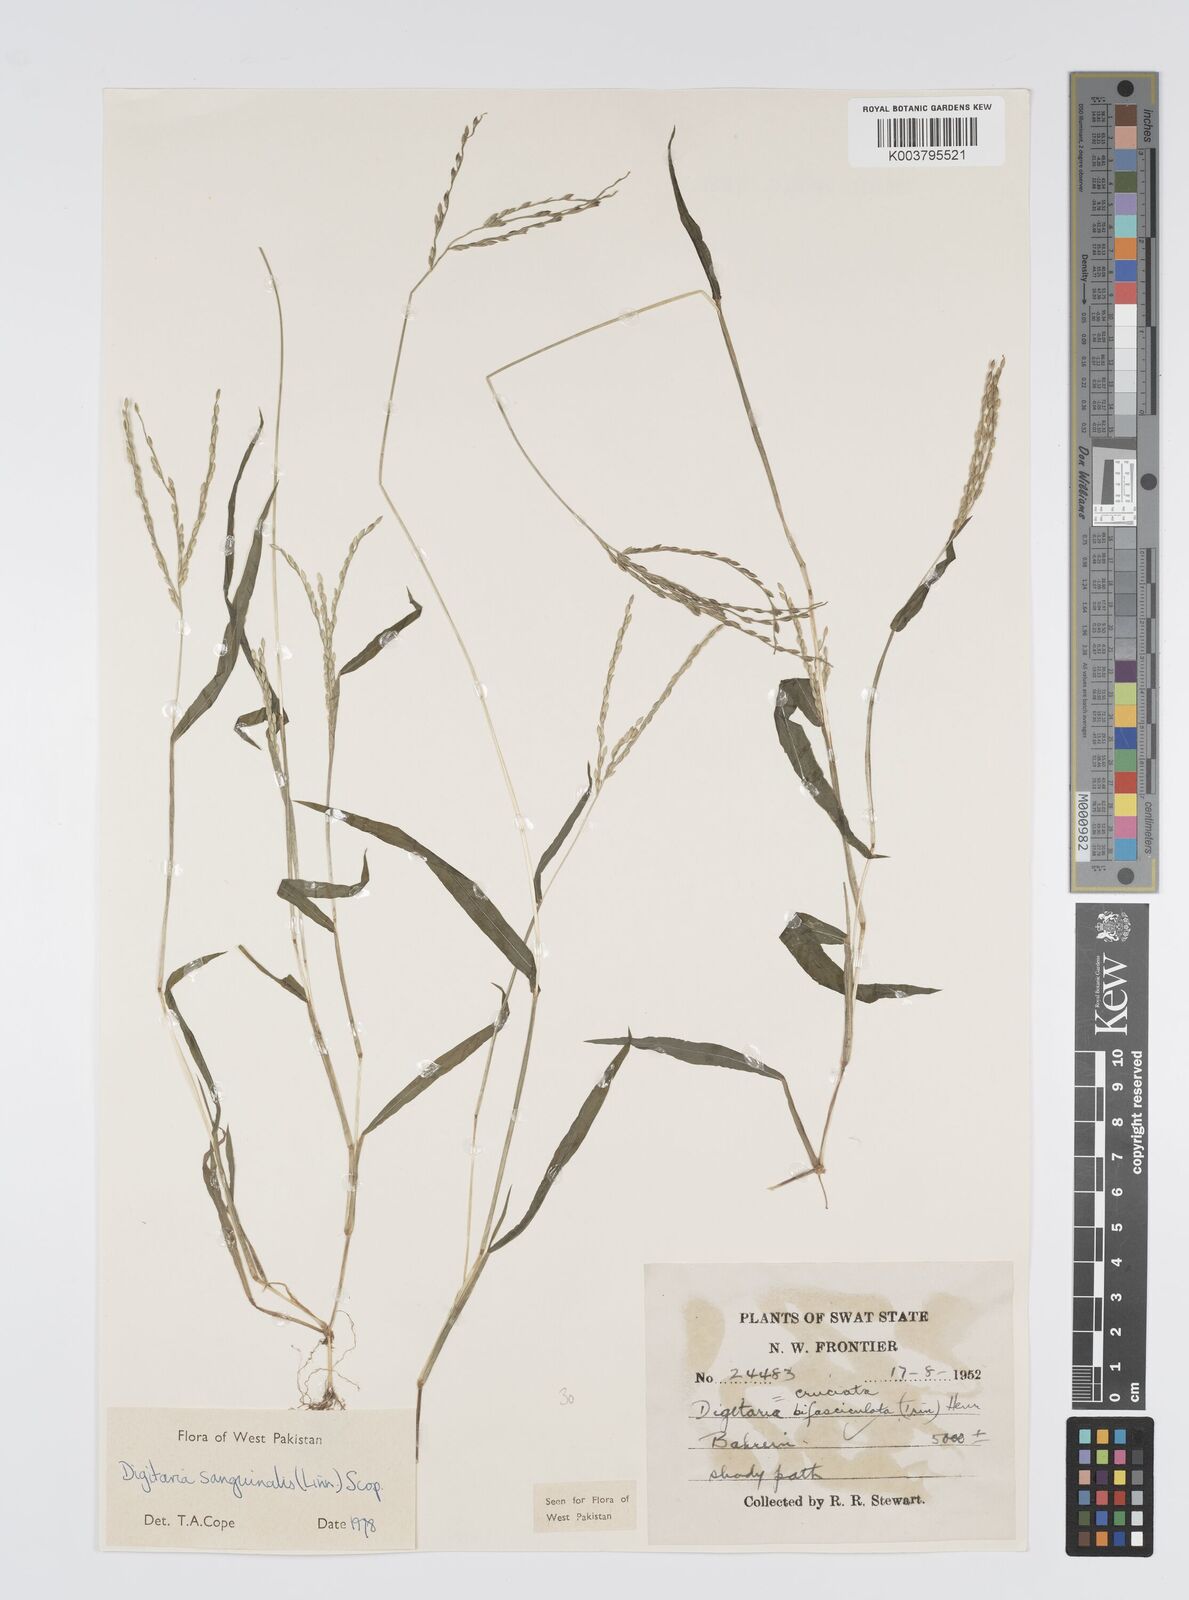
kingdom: Plantae
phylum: Tracheophyta
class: Liliopsida
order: Poales
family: Poaceae
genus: Digitaria
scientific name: Digitaria sanguinalis
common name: Hairy crabgrass
